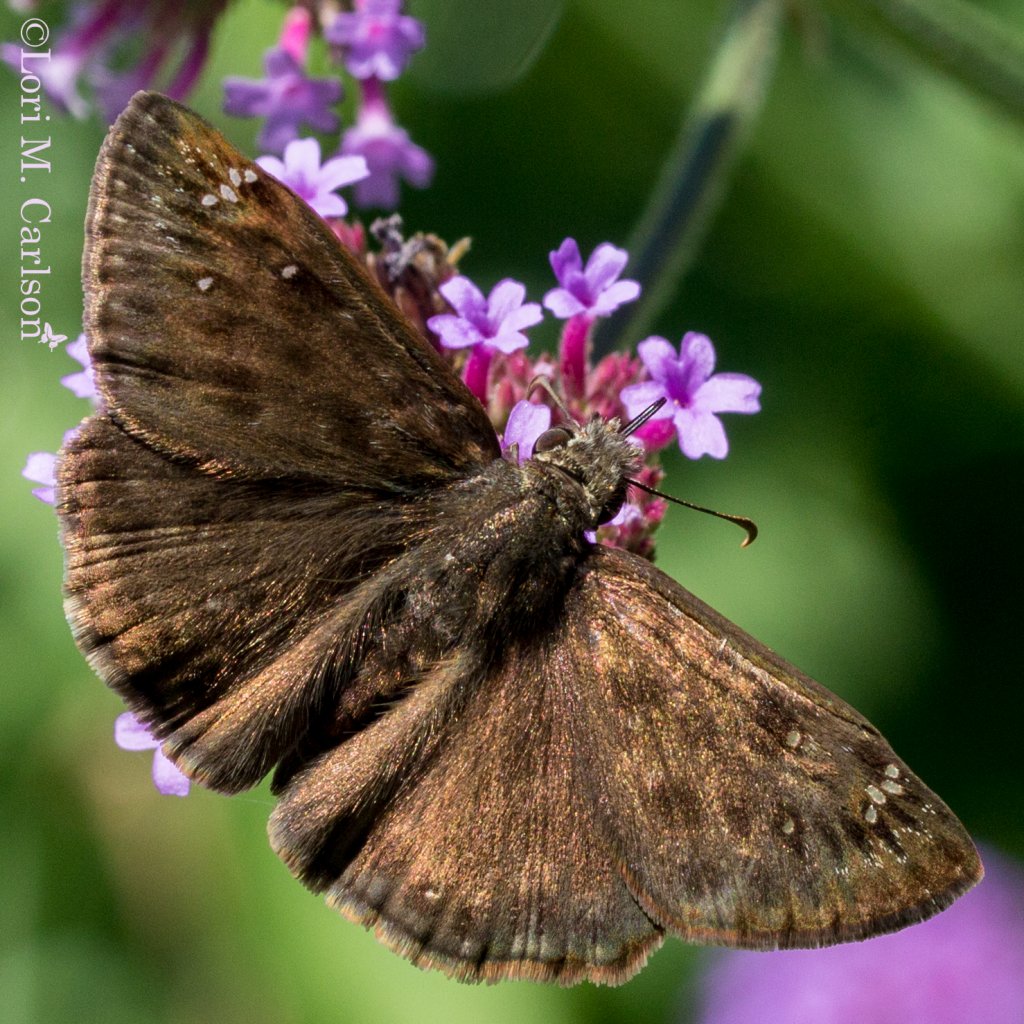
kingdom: Animalia
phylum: Arthropoda
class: Insecta
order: Lepidoptera
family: Hesperiidae
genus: Gesta
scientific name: Gesta
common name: Horace's Duskywing
